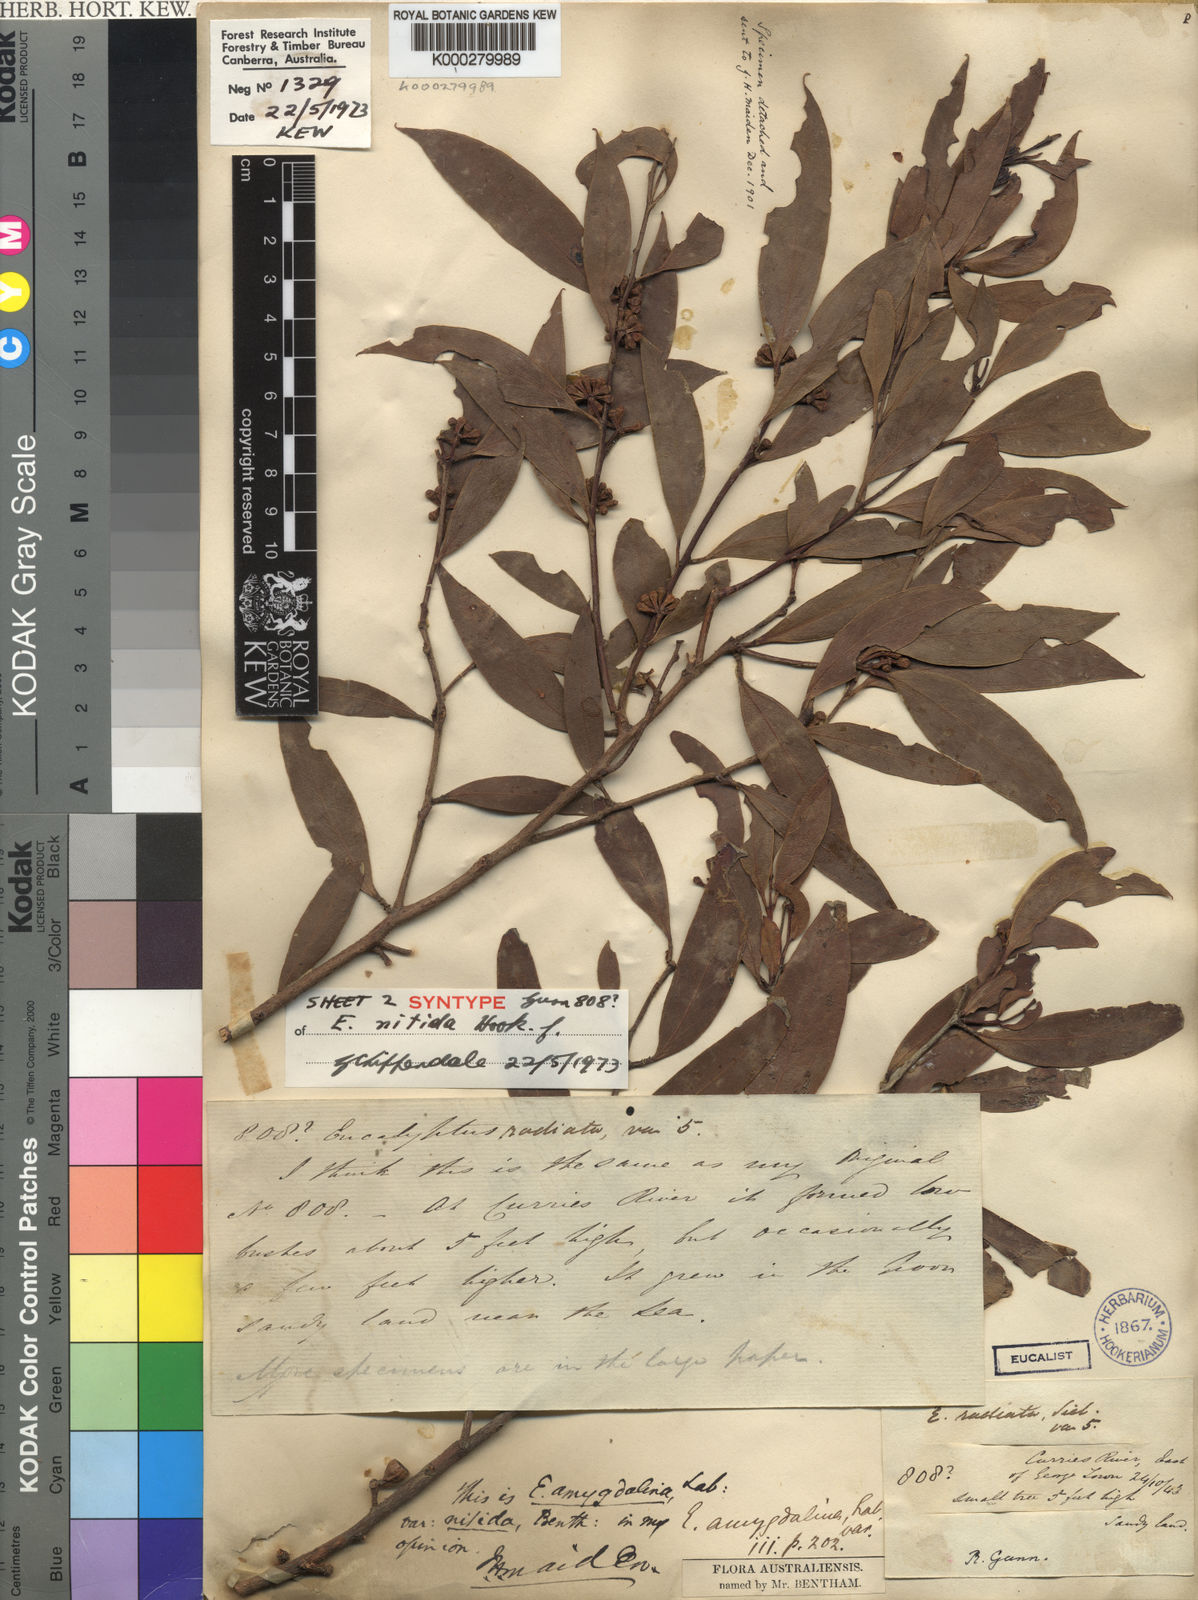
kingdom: Plantae
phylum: Tracheophyta
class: Magnoliopsida
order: Myrtales
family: Myrtaceae
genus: Eucalyptus
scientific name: Eucalyptus nitida
